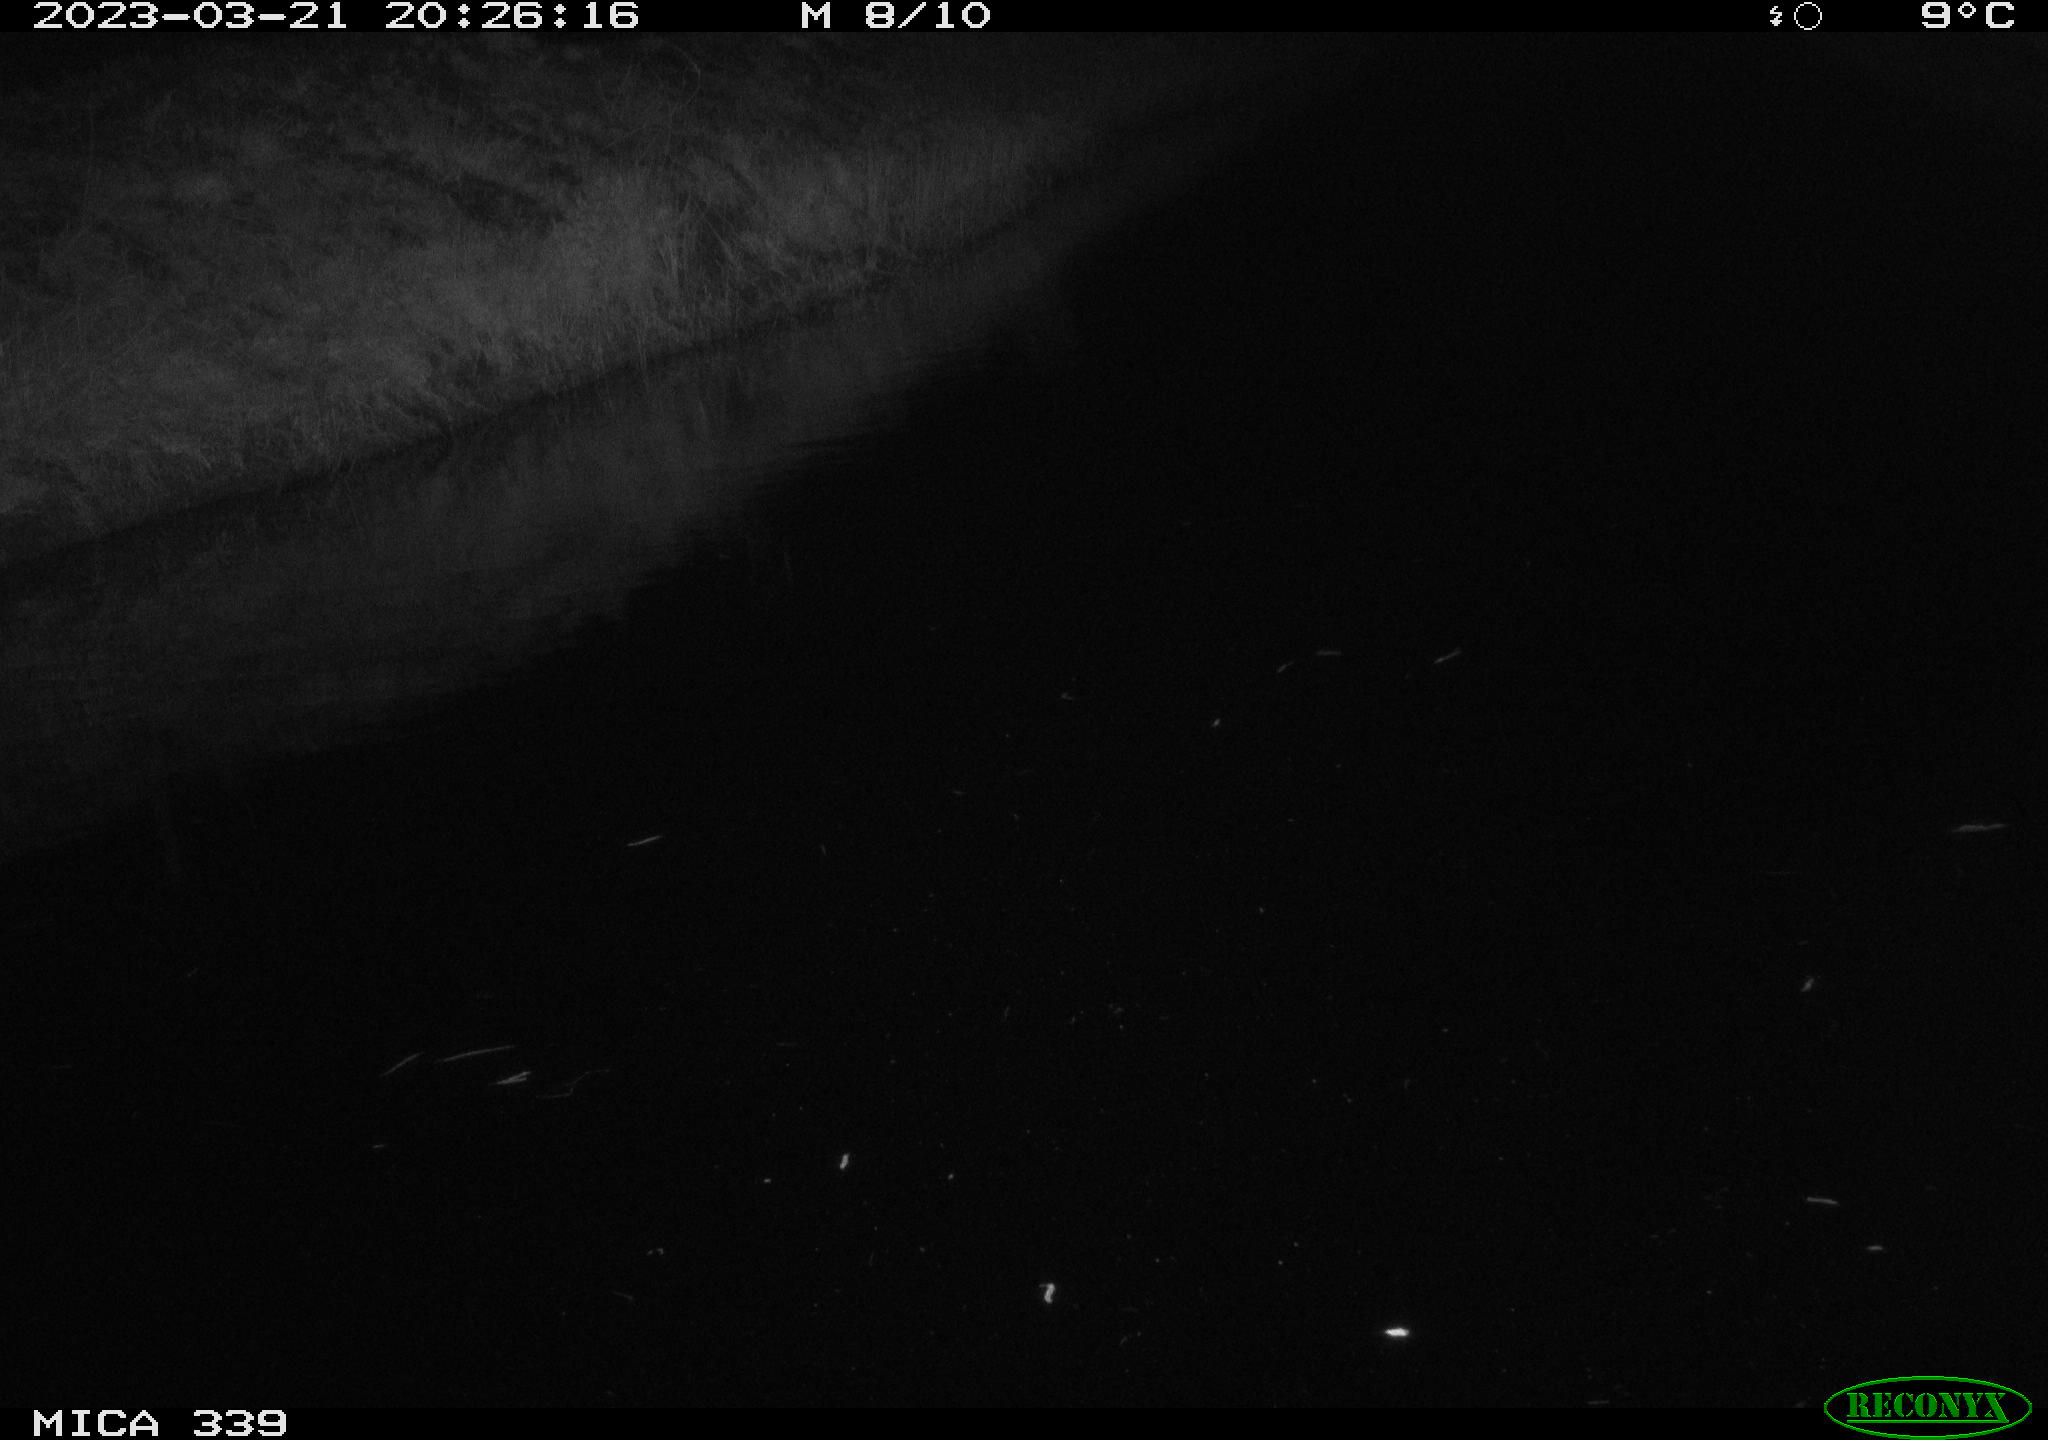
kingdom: Animalia
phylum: Chordata
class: Aves
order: Pelecaniformes
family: Ardeidae
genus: Ardea
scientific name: Ardea cinerea
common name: Grey heron
